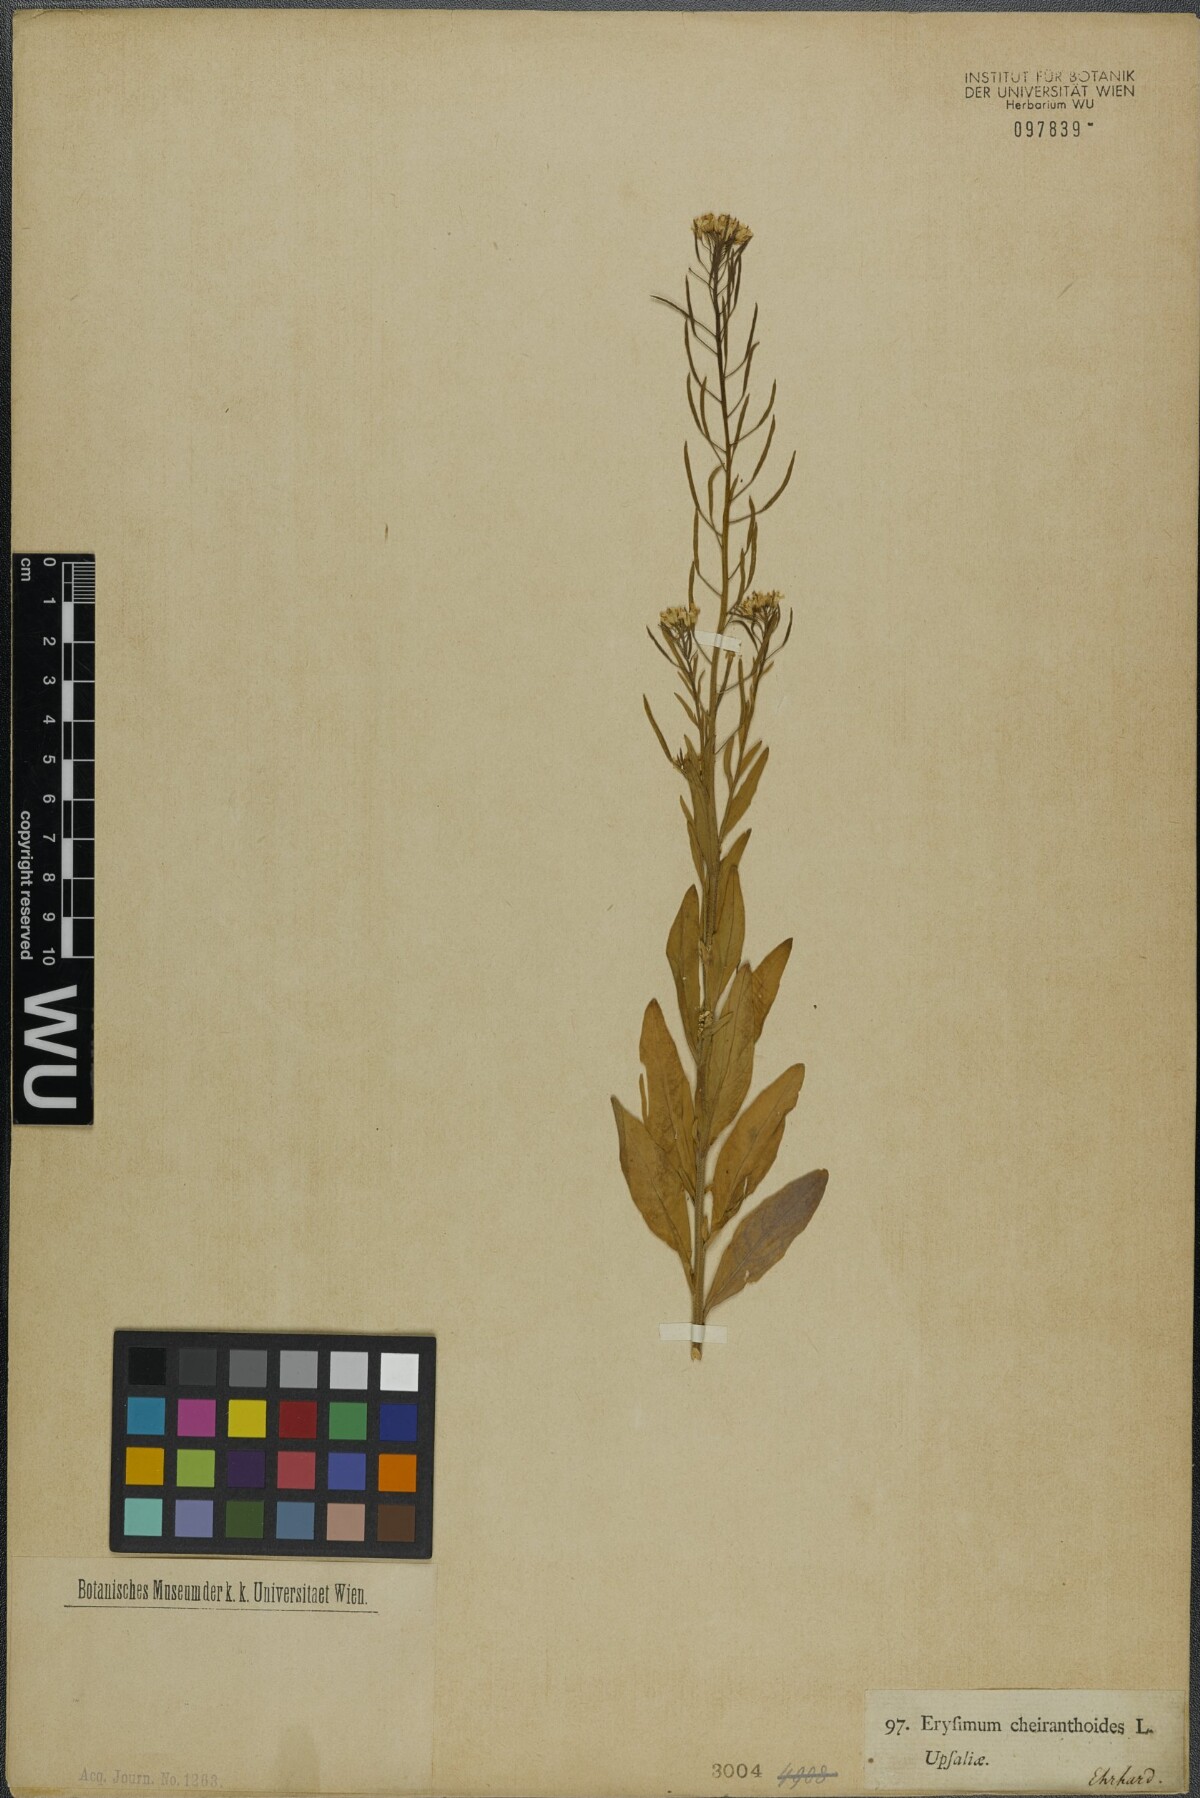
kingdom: Plantae
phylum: Tracheophyta
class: Magnoliopsida
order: Brassicales
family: Brassicaceae
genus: Erysimum
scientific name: Erysimum cheiranthoides
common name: Treacle mustard
